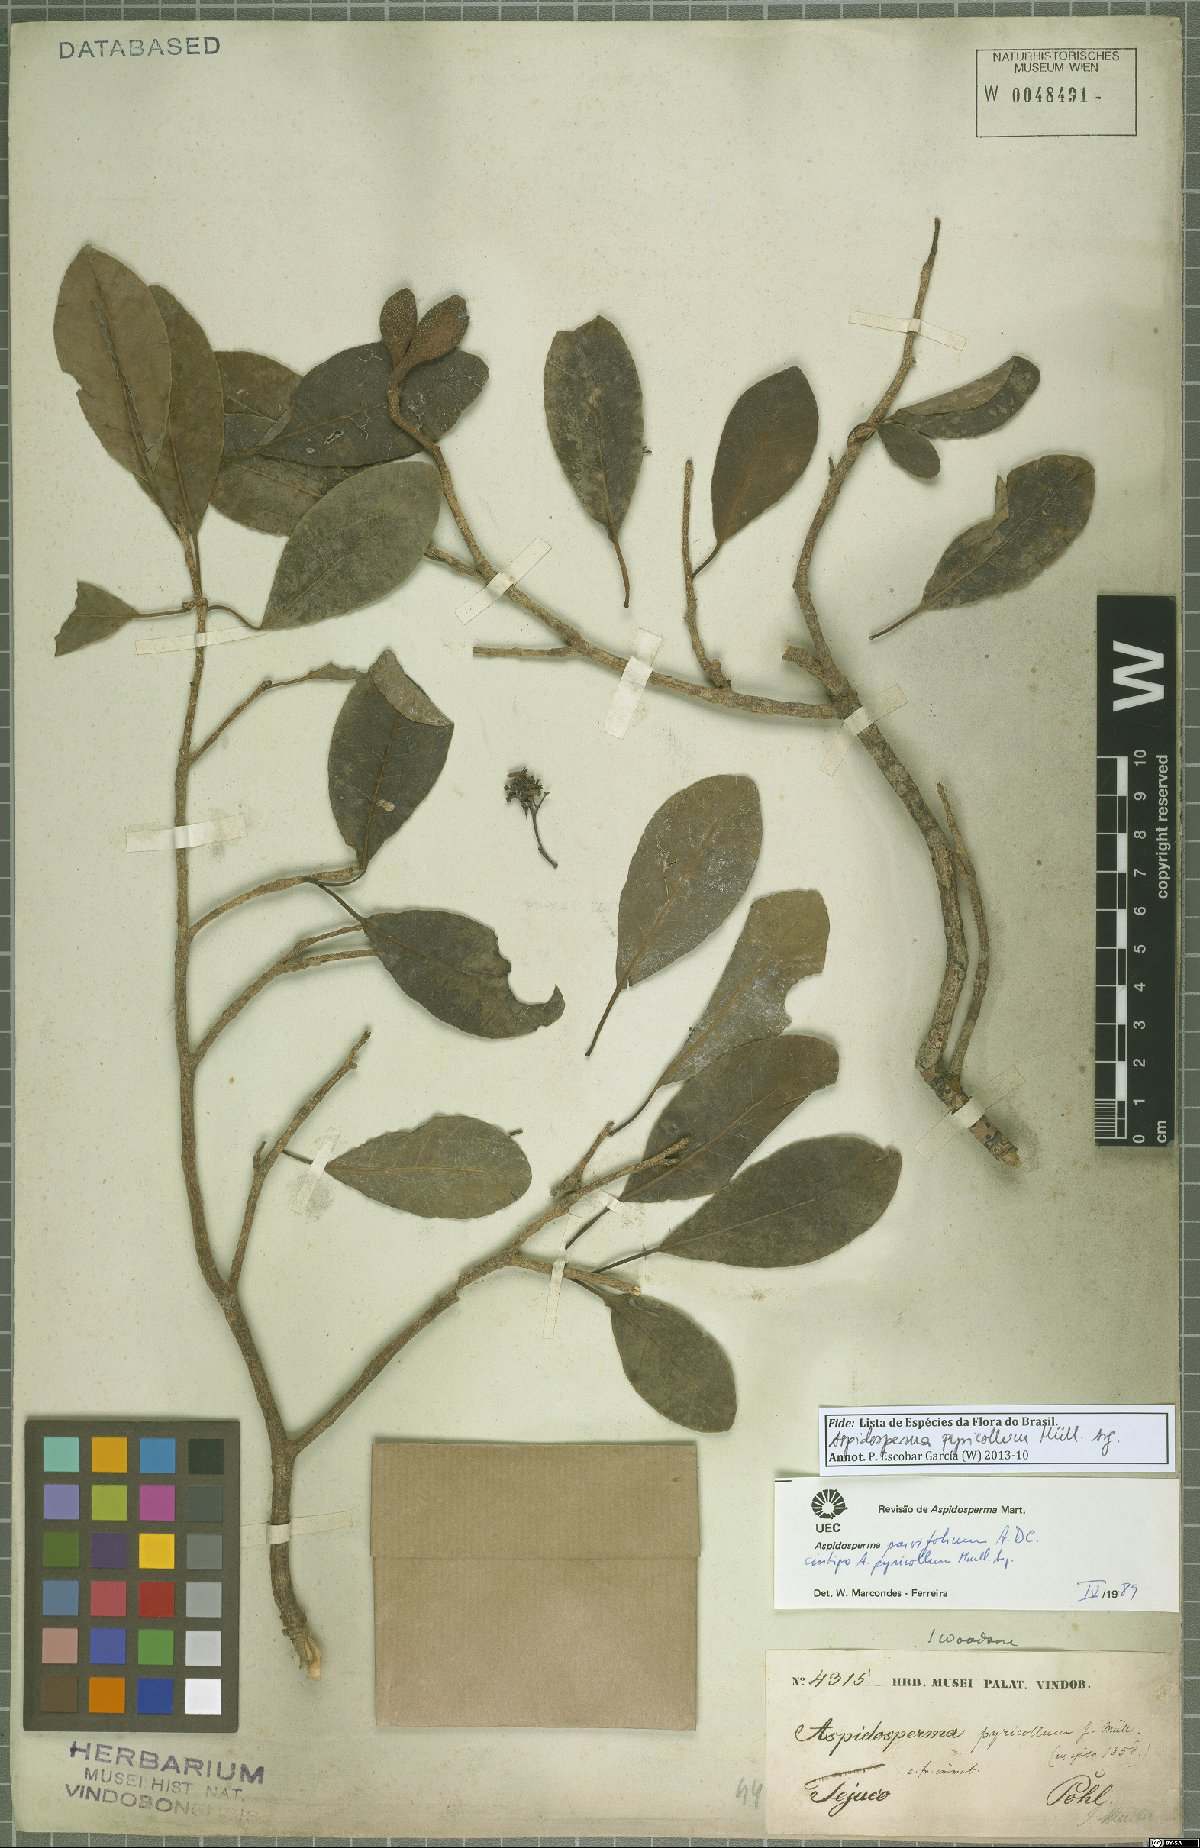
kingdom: Plantae
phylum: Tracheophyta
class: Magnoliopsida
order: Gentianales
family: Apocynaceae
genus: Aspidosperma
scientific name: Aspidosperma pyricollum
